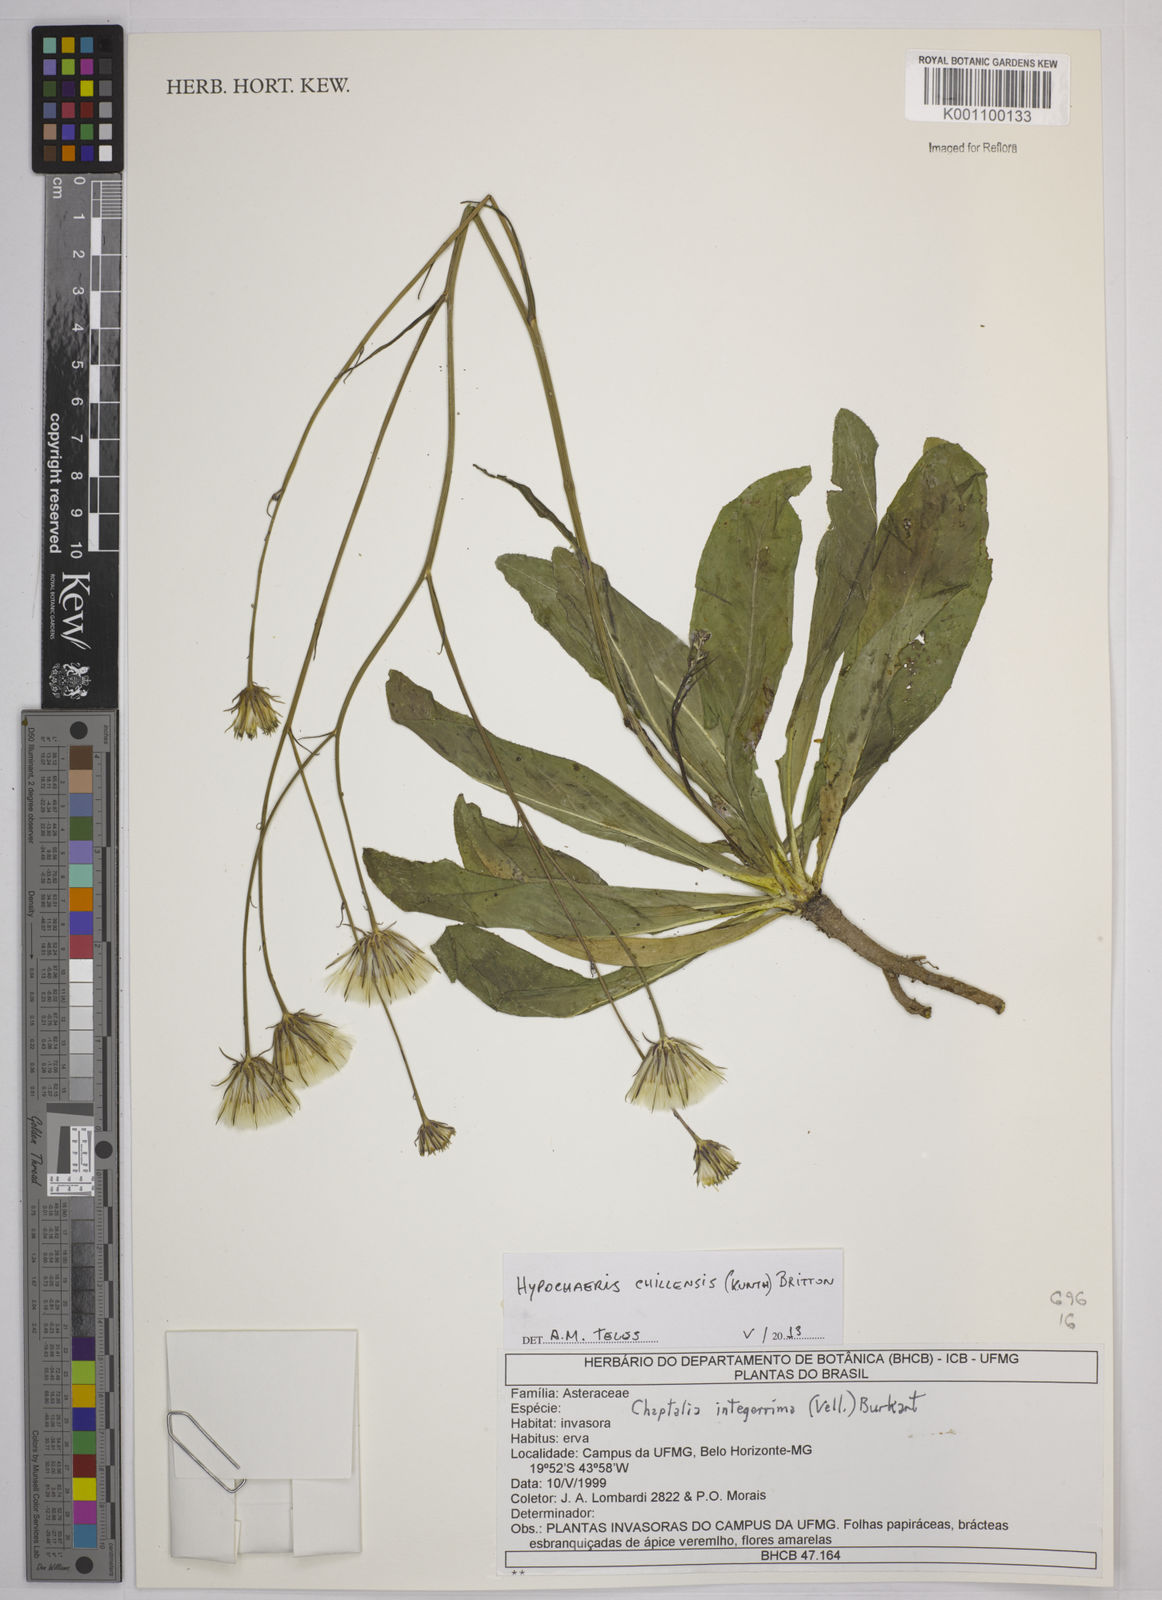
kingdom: Plantae
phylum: Tracheophyta
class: Magnoliopsida
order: Asterales
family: Asteraceae
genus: Hypochaeris
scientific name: Hypochaeris chillensis
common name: Brazilian cat's ear
